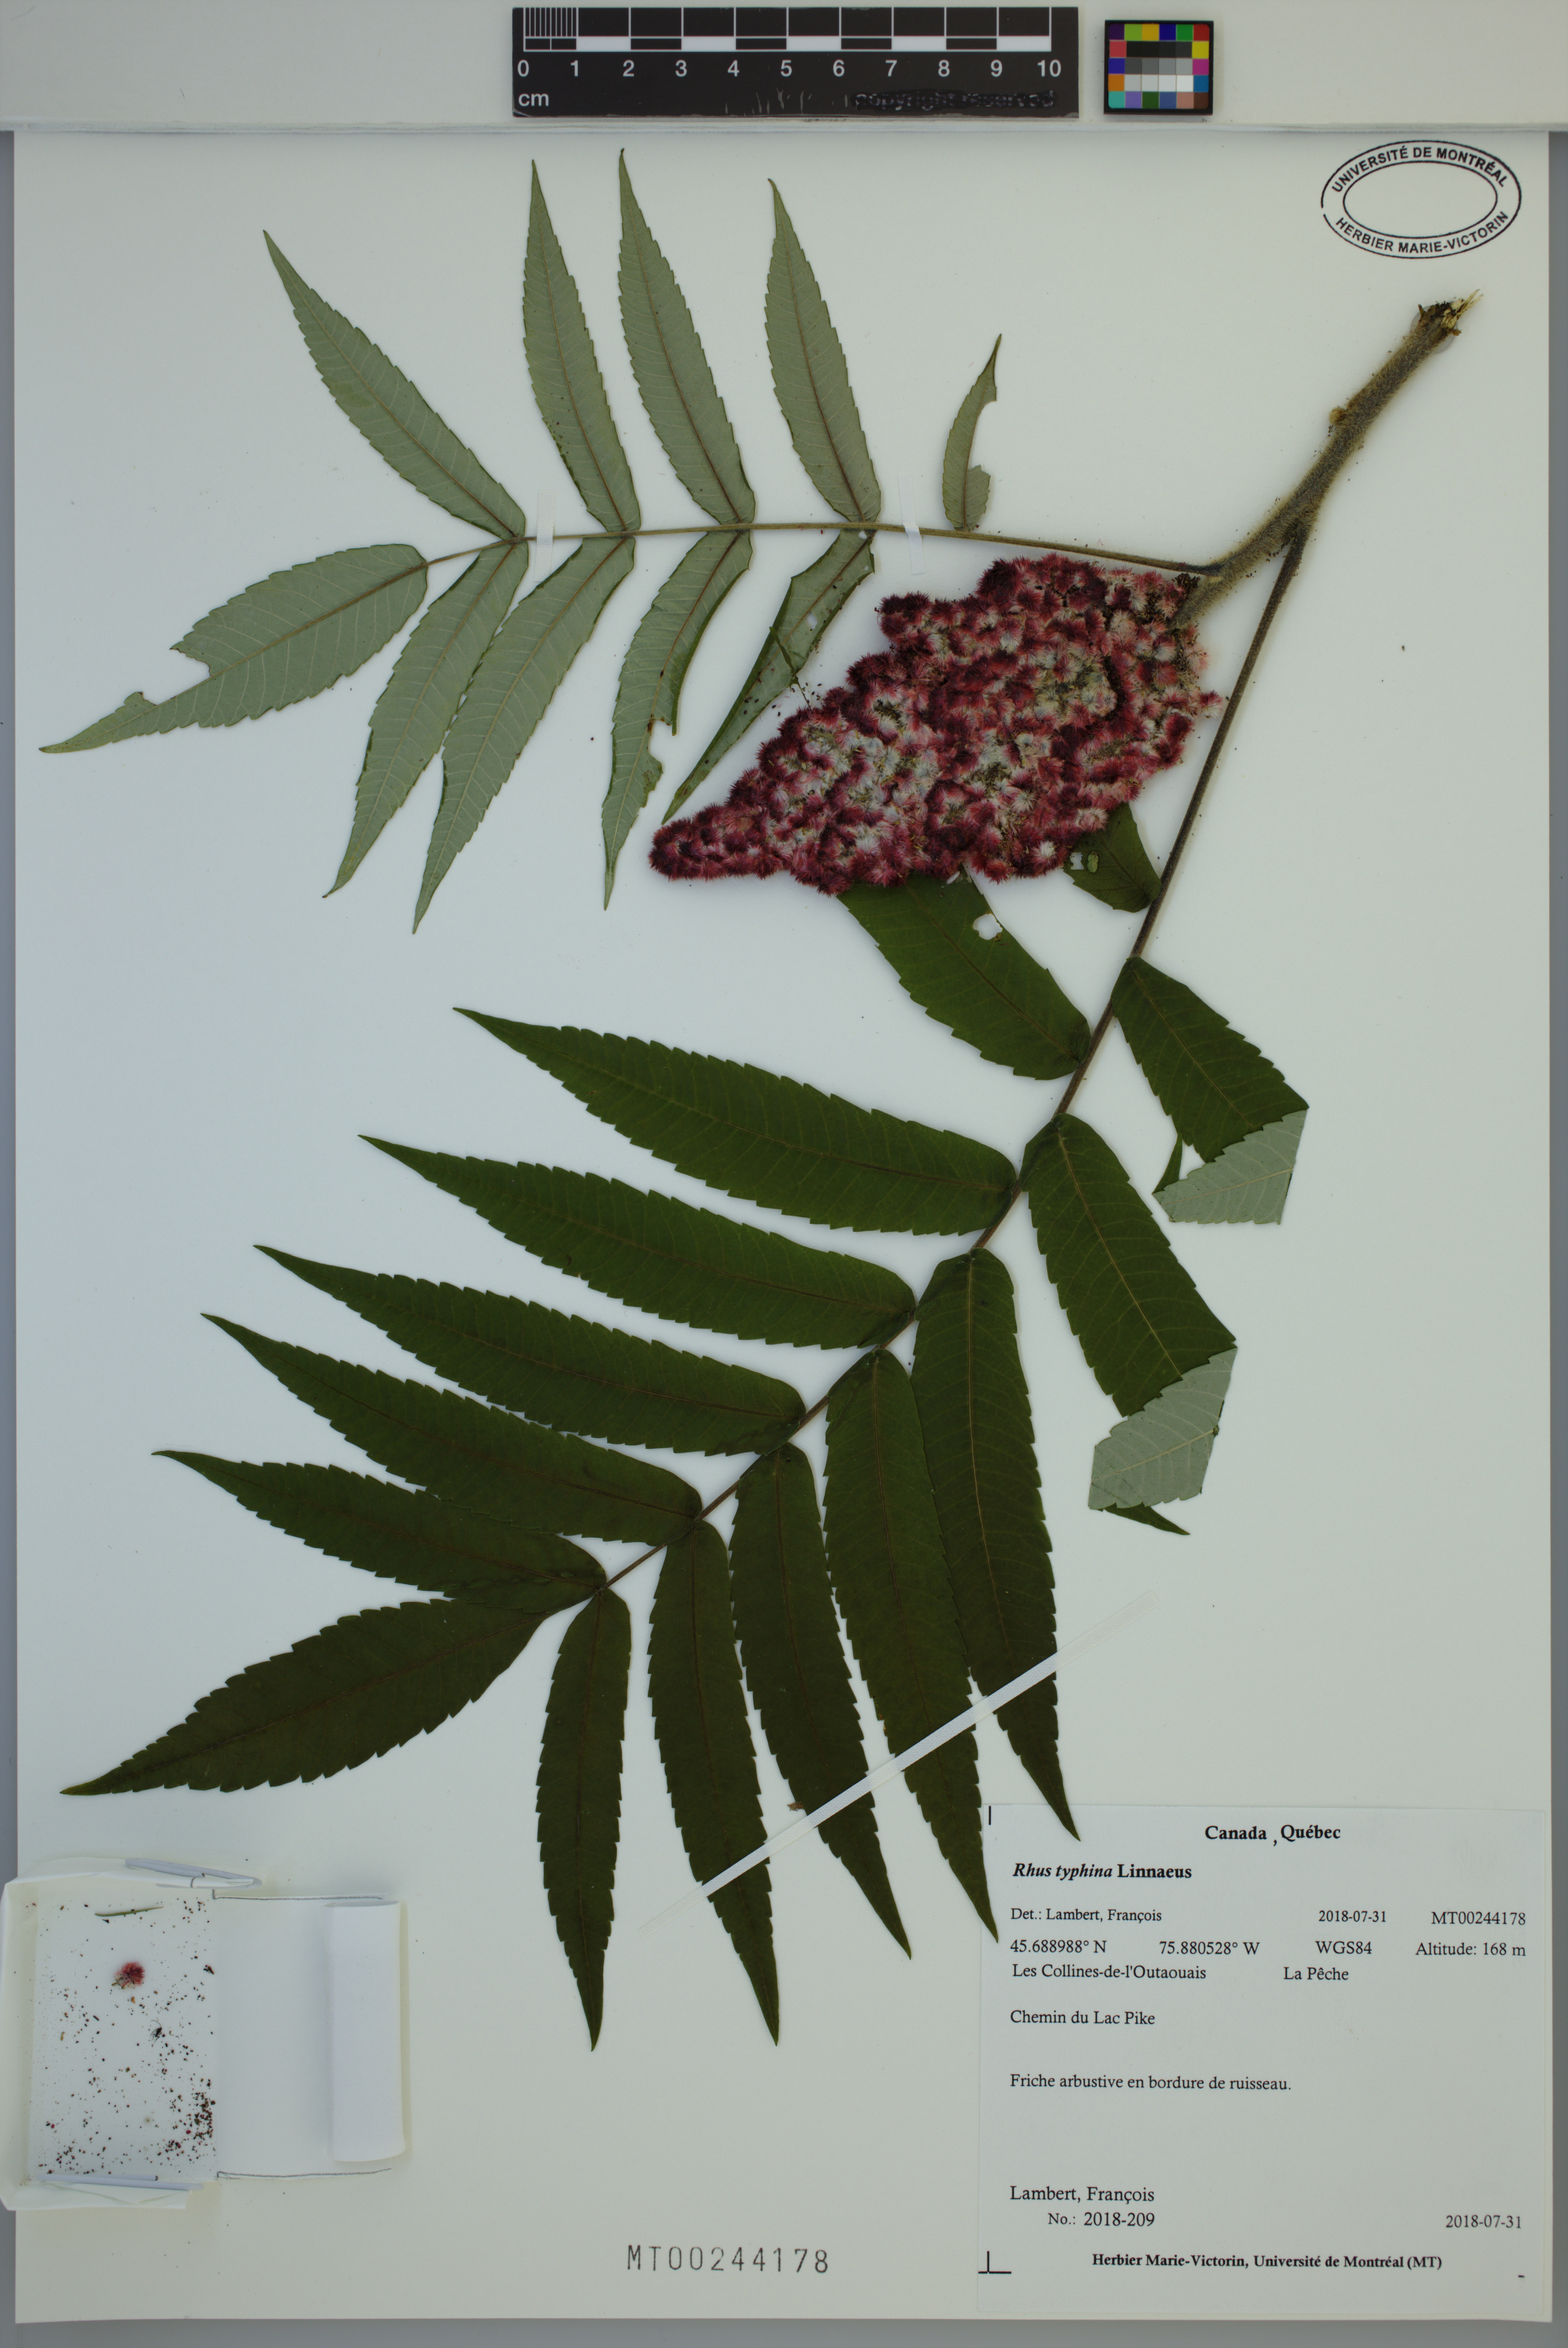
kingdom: Plantae
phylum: Tracheophyta
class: Magnoliopsida
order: Sapindales
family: Anacardiaceae
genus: Rhus
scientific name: Rhus typhina
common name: Staghorn sumac
